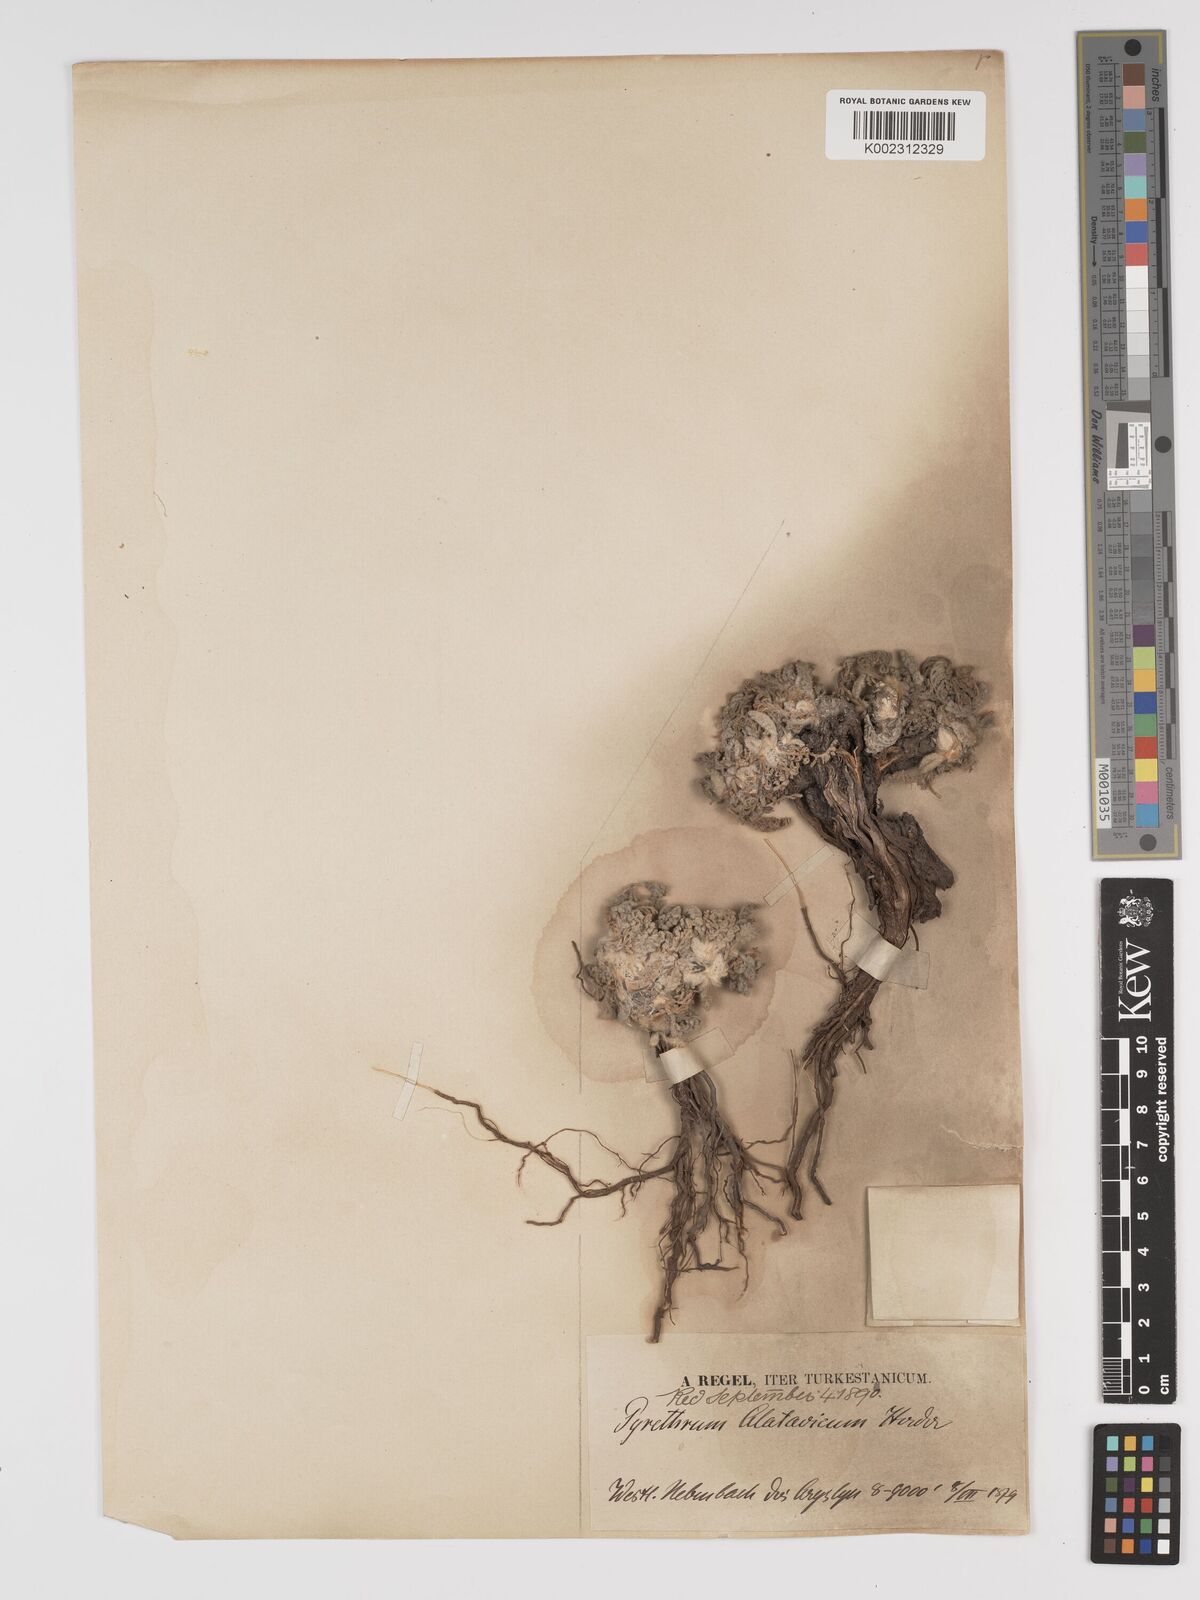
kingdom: Plantae
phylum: Tracheophyta
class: Magnoliopsida
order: Asterales
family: Asteraceae
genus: Tanacetum
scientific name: Tanacetum alatavicum
